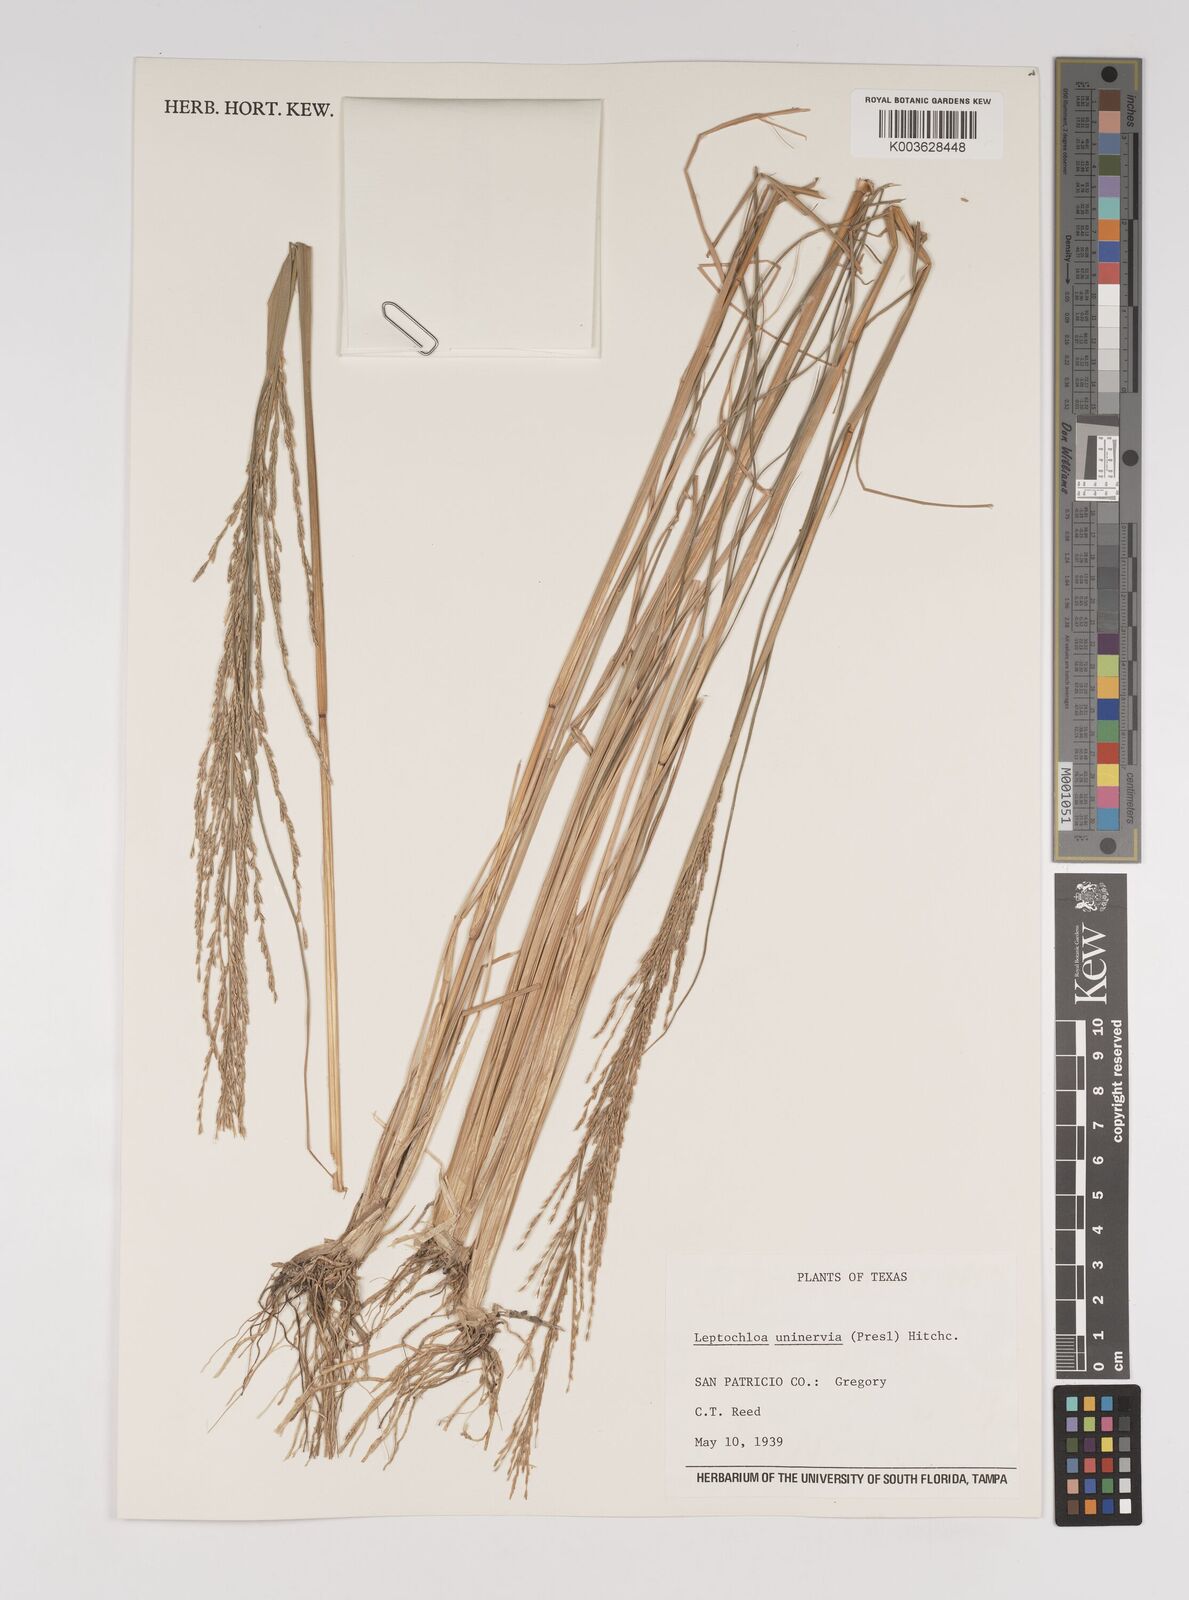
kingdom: Plantae
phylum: Tracheophyta
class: Liliopsida
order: Poales
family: Poaceae
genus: Diplachne
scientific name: Diplachne fusca
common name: Brown beetle grass
